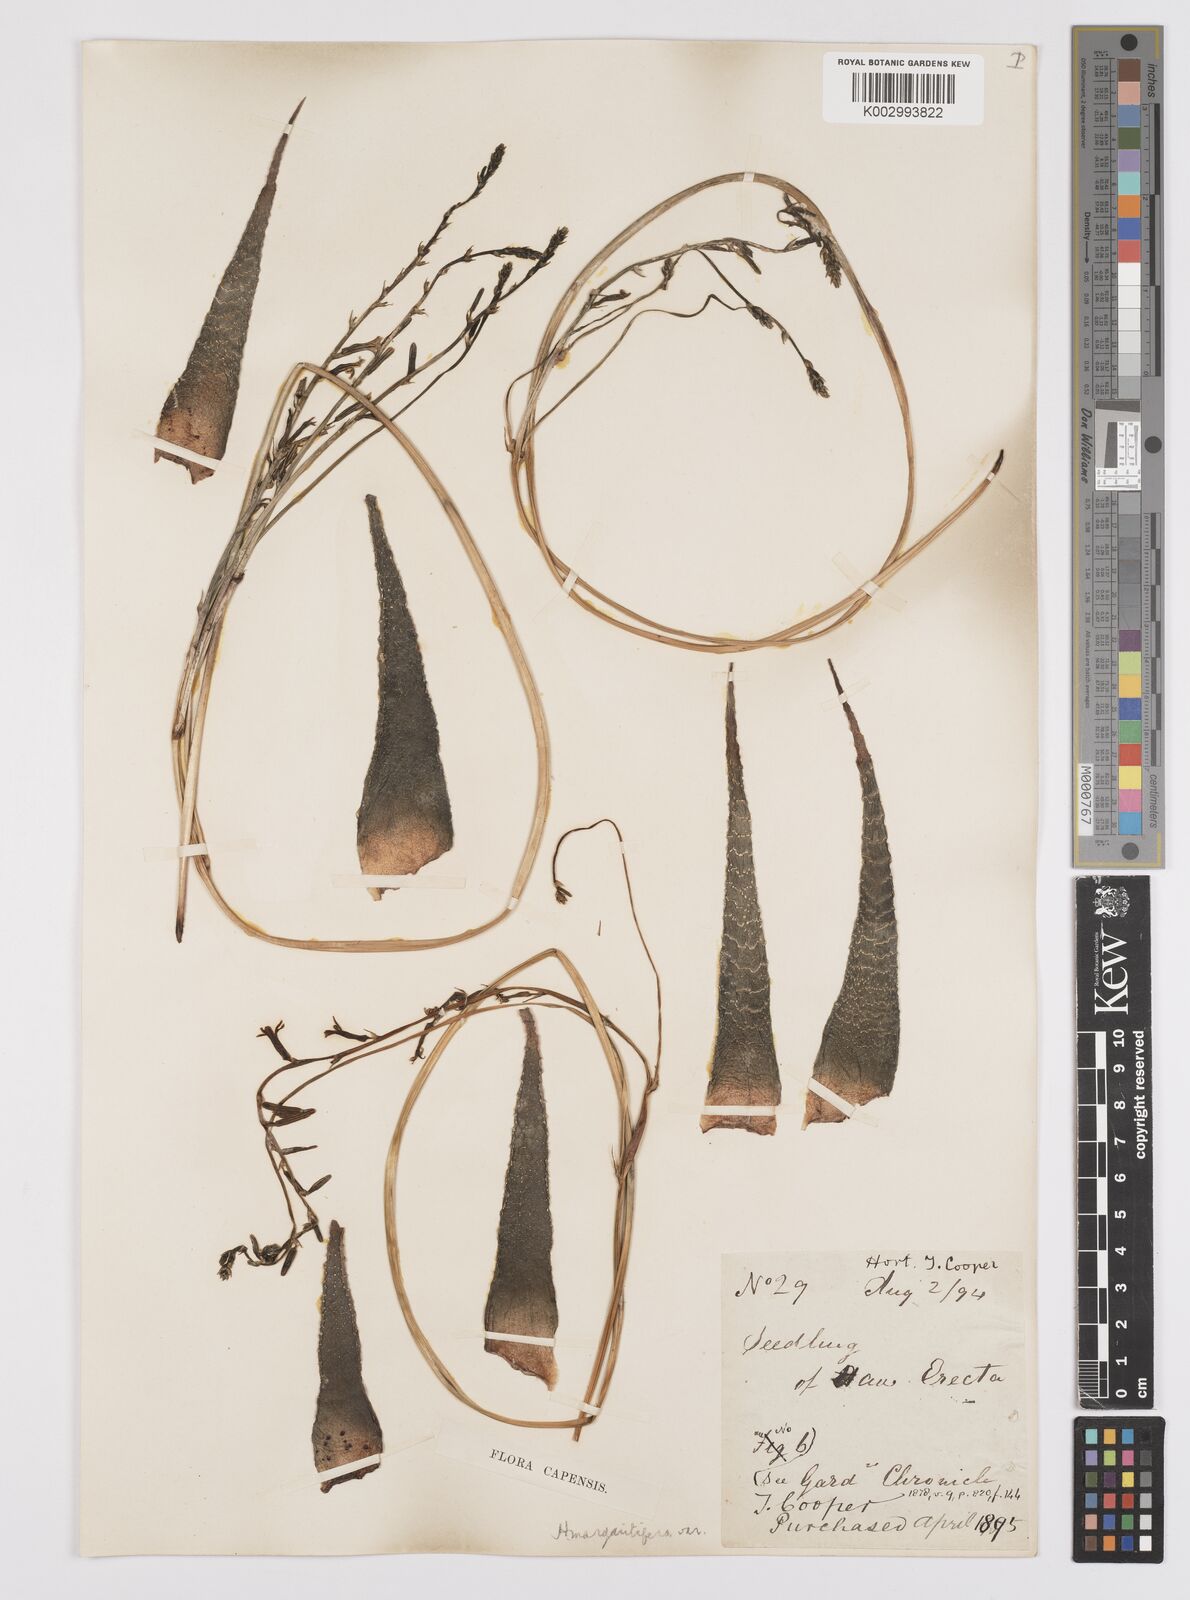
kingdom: Plantae
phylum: Tracheophyta
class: Liliopsida
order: Asparagales
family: Asphodelaceae
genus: Tulista
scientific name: Tulista pumila
